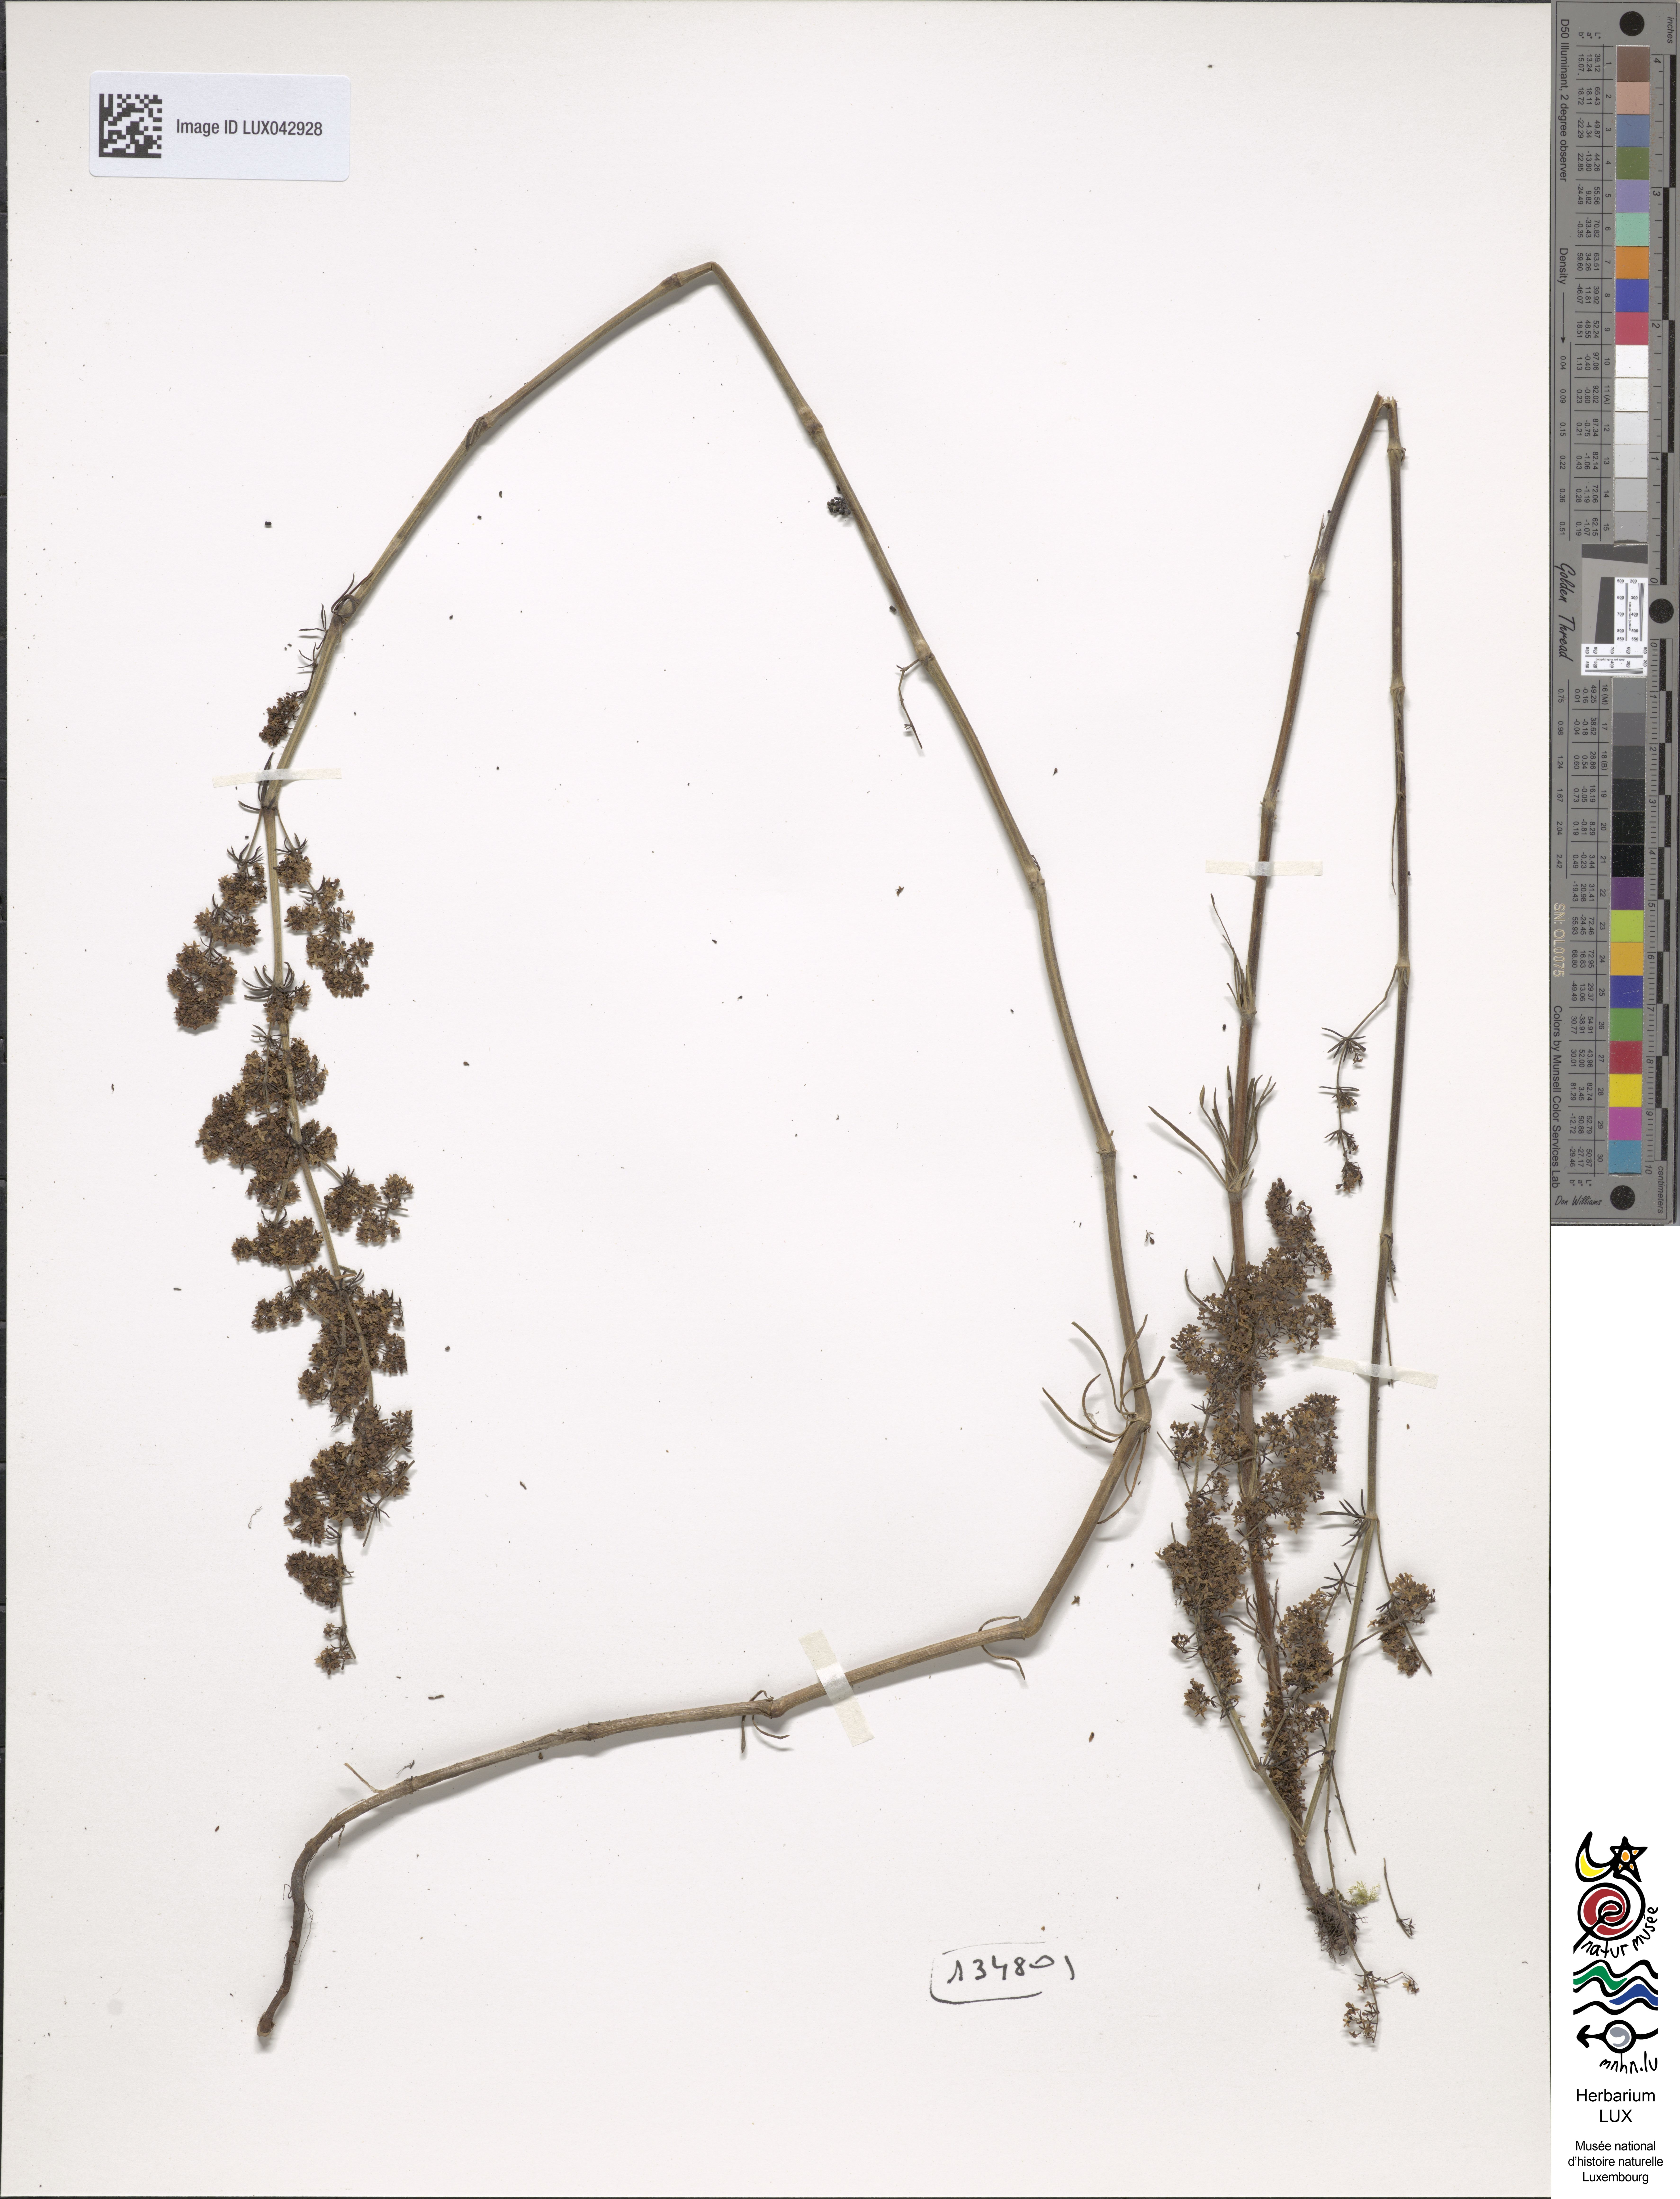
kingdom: Plantae
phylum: Tracheophyta
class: Magnoliopsida
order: Gentianales
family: Rubiaceae
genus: Galium
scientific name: Galium verum
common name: Lady's bedstraw
